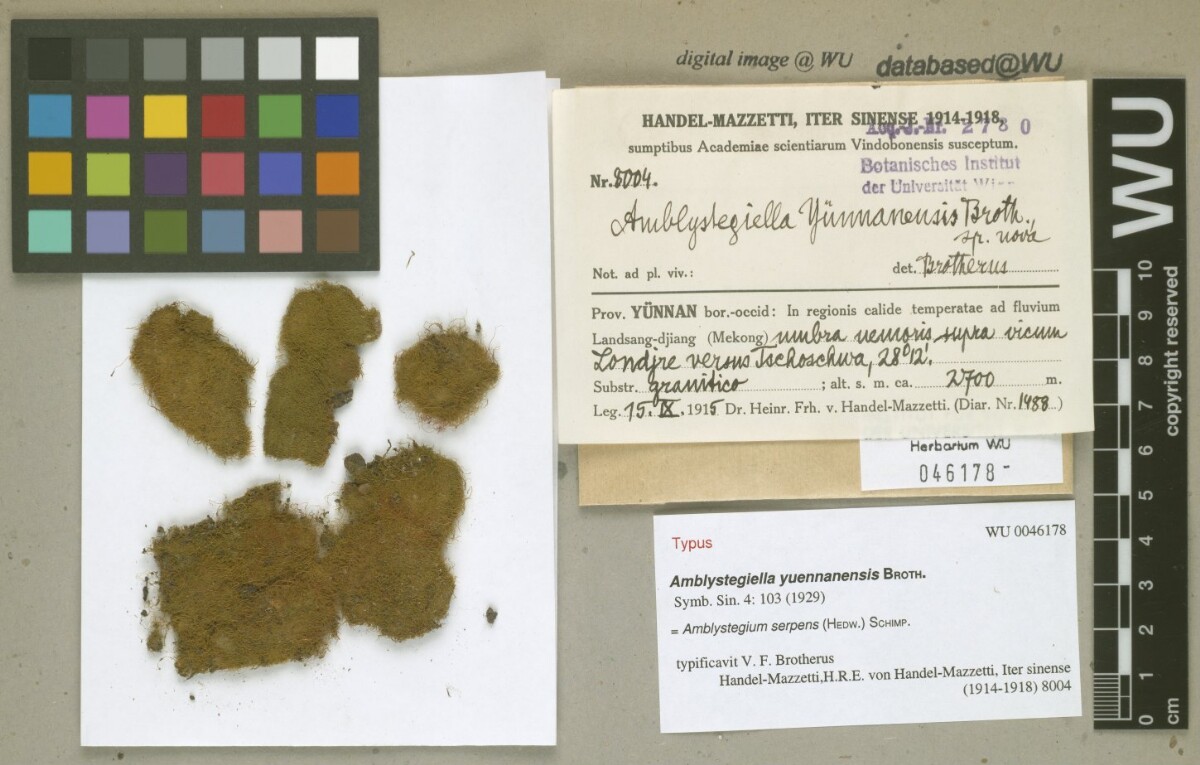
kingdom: Plantae
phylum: Bryophyta
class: Bryopsida
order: Hypnales
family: Plagiotheciaceae
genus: Platydictya
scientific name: Platydictya jungermannioides
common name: False willow moss
